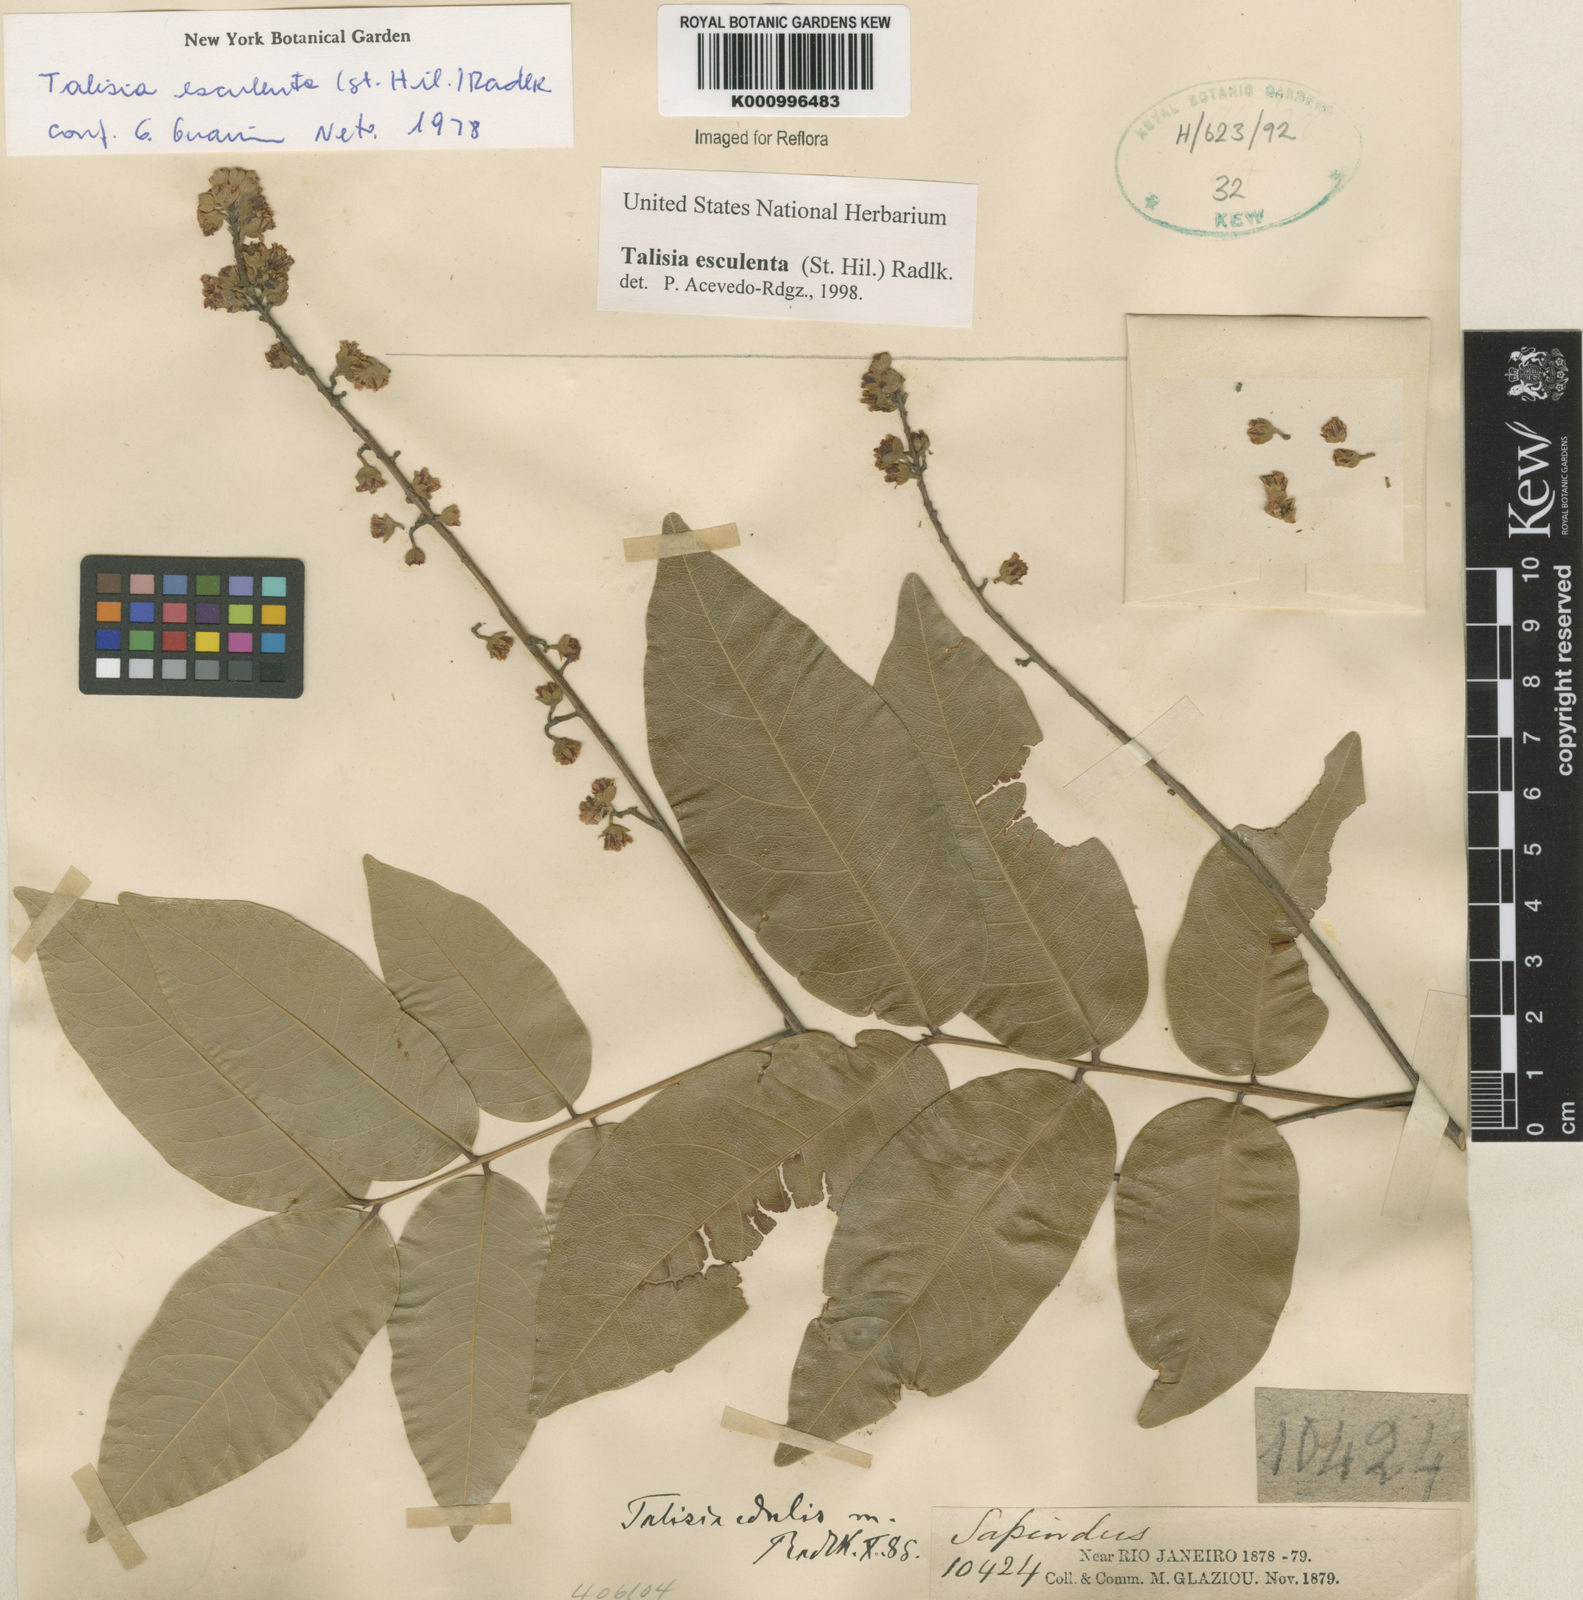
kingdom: Plantae
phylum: Tracheophyta
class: Magnoliopsida
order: Sapindales
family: Sapindaceae
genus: Talisia
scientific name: Talisia
